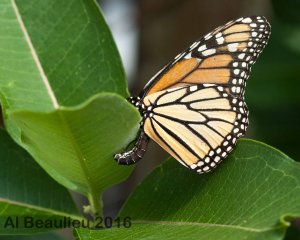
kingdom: Animalia
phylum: Arthropoda
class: Insecta
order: Lepidoptera
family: Nymphalidae
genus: Danaus
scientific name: Danaus plexippus
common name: Monarch
